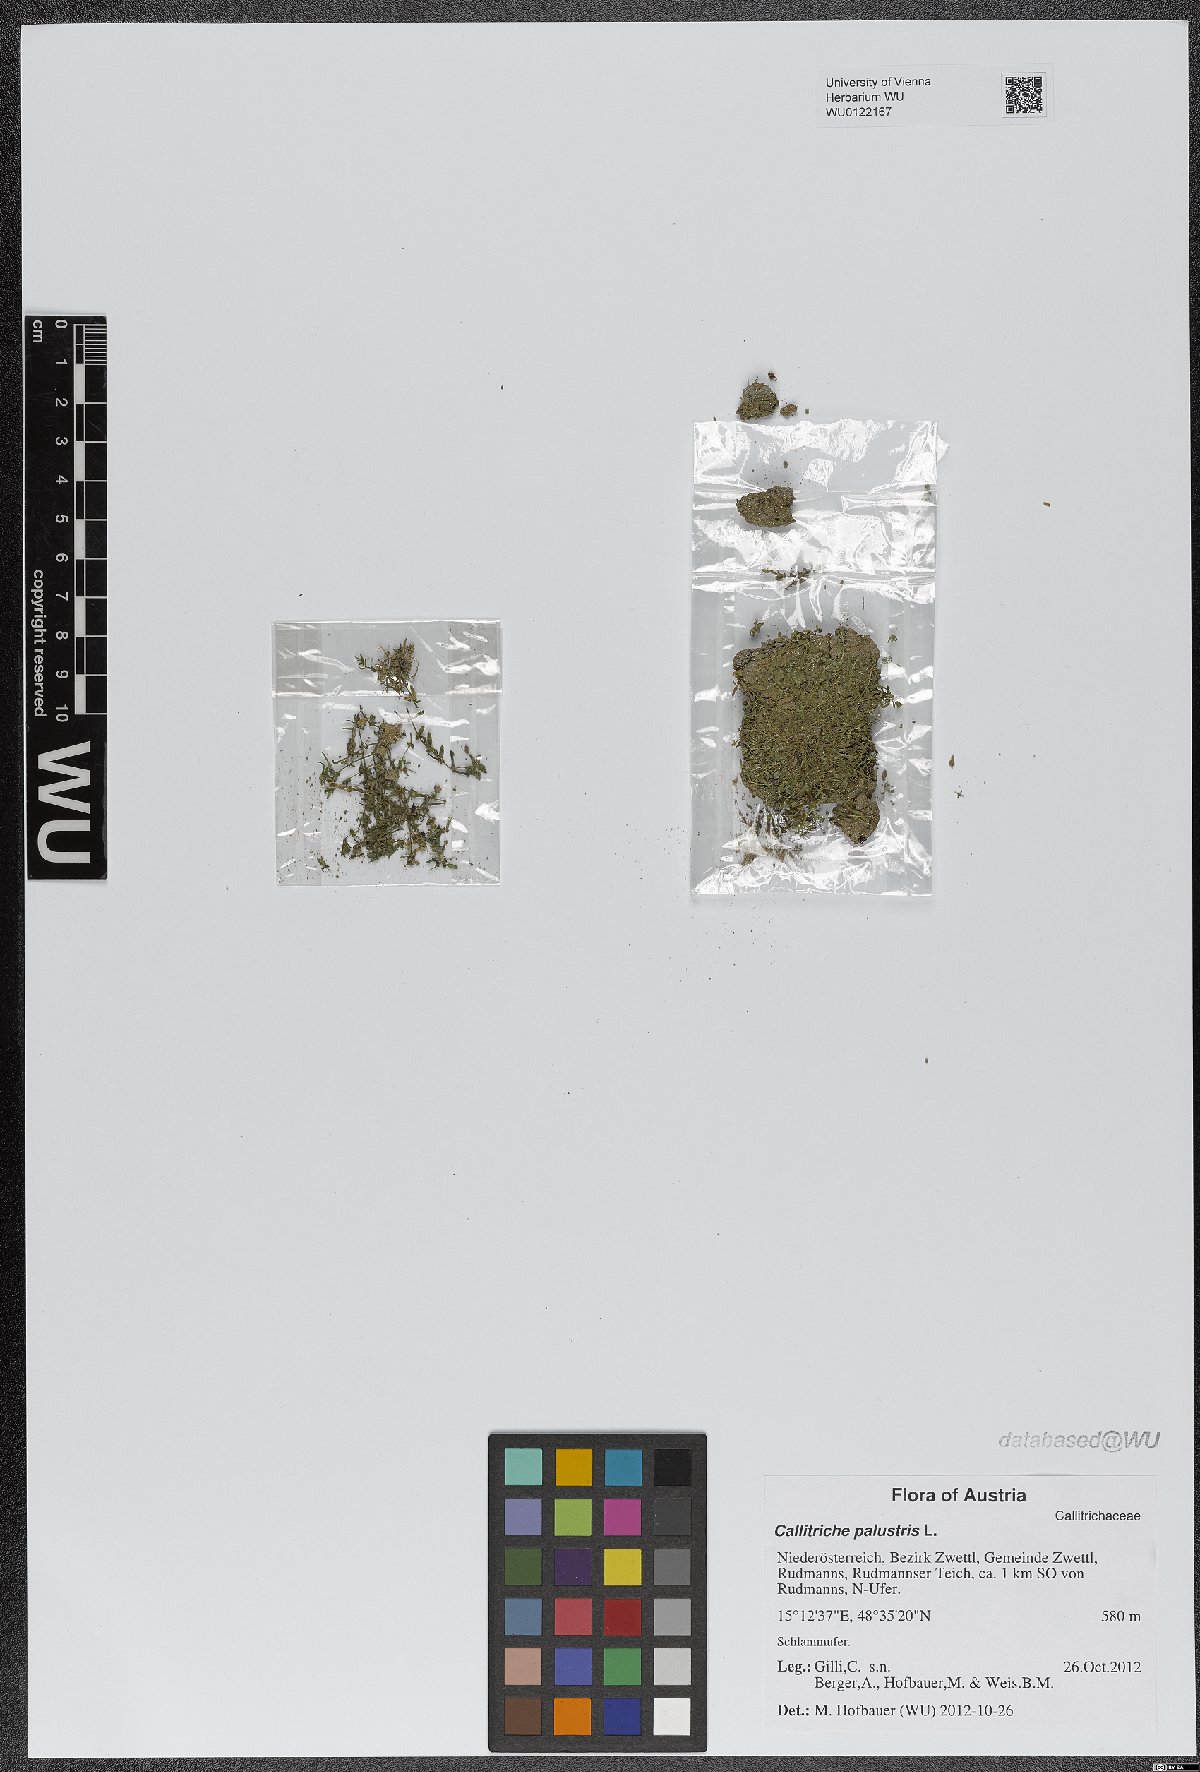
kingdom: Plantae
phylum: Tracheophyta
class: Magnoliopsida
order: Lamiales
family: Plantaginaceae
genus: Callitriche
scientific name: Callitriche palustris
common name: Spring water-starwort
